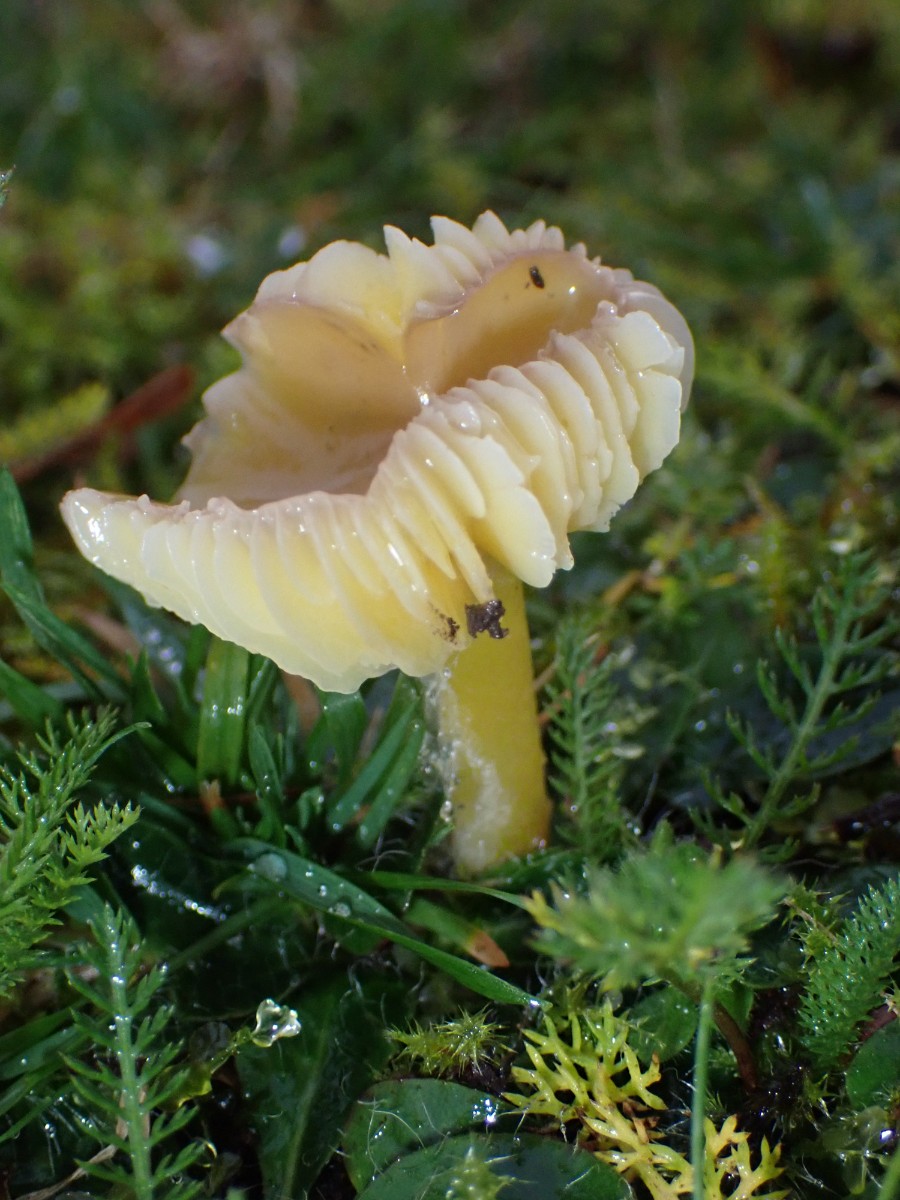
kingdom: Fungi
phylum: Basidiomycota
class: Agaricomycetes
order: Agaricales
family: Hygrophoraceae
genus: Hygrocybe
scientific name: Hygrocybe chlorophana
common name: gul vokshat
